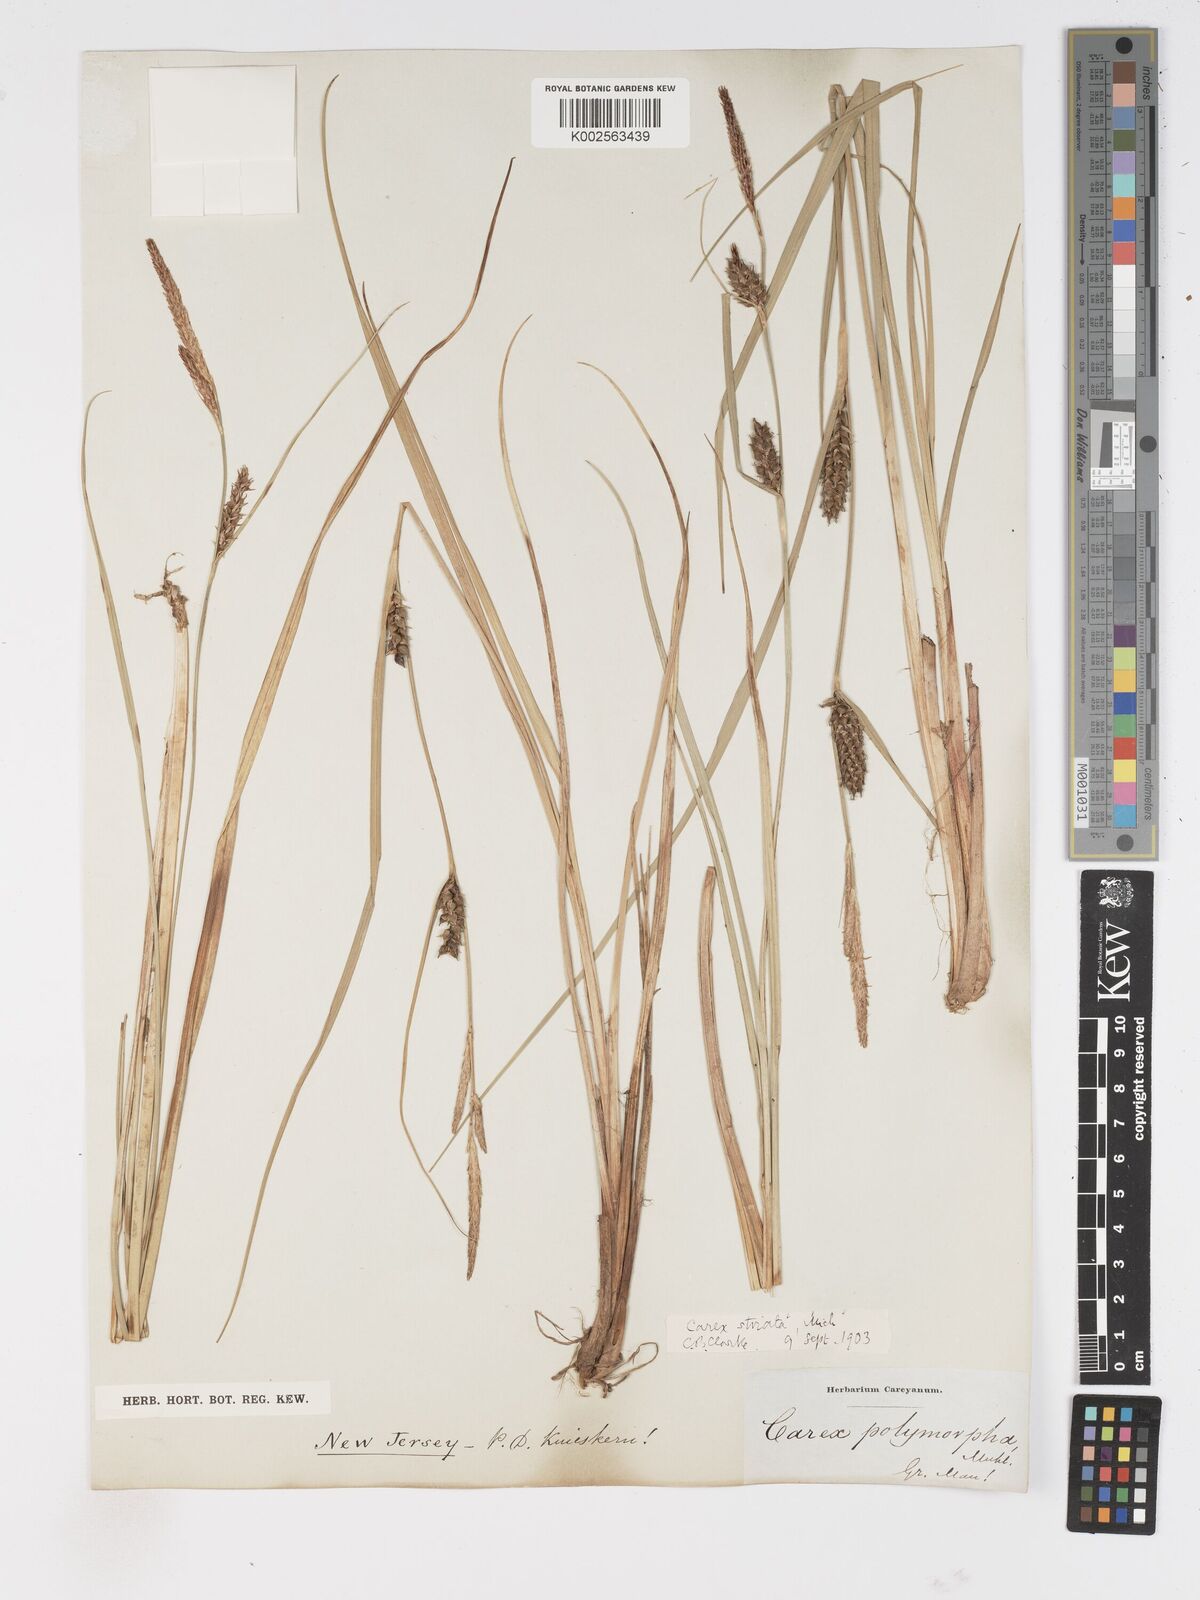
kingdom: Plantae
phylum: Tracheophyta
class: Liliopsida
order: Poales
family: Cyperaceae
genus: Carex
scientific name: Carex trichocarpa
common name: Hairy-fruited lake sedge
